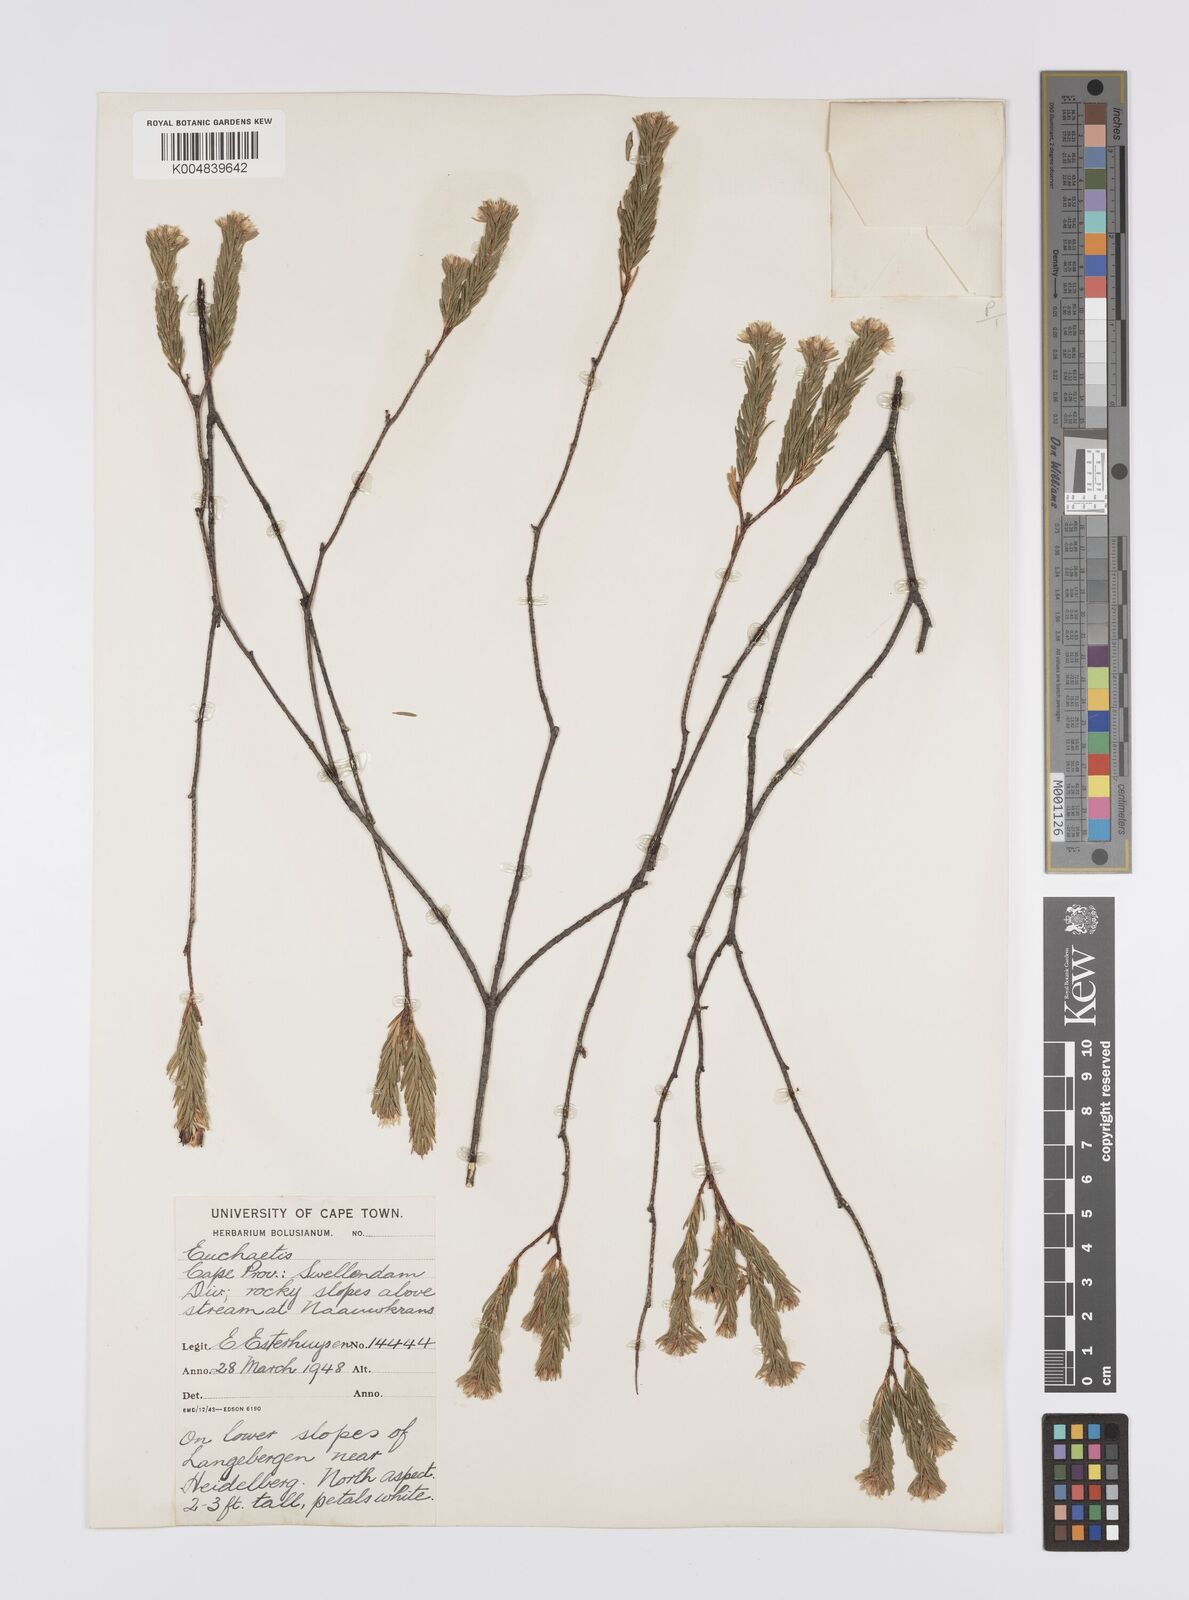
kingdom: Plantae
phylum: Tracheophyta
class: Magnoliopsida
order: Sapindales
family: Rutaceae
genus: Euchaetis
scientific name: Euchaetis avisylvana
